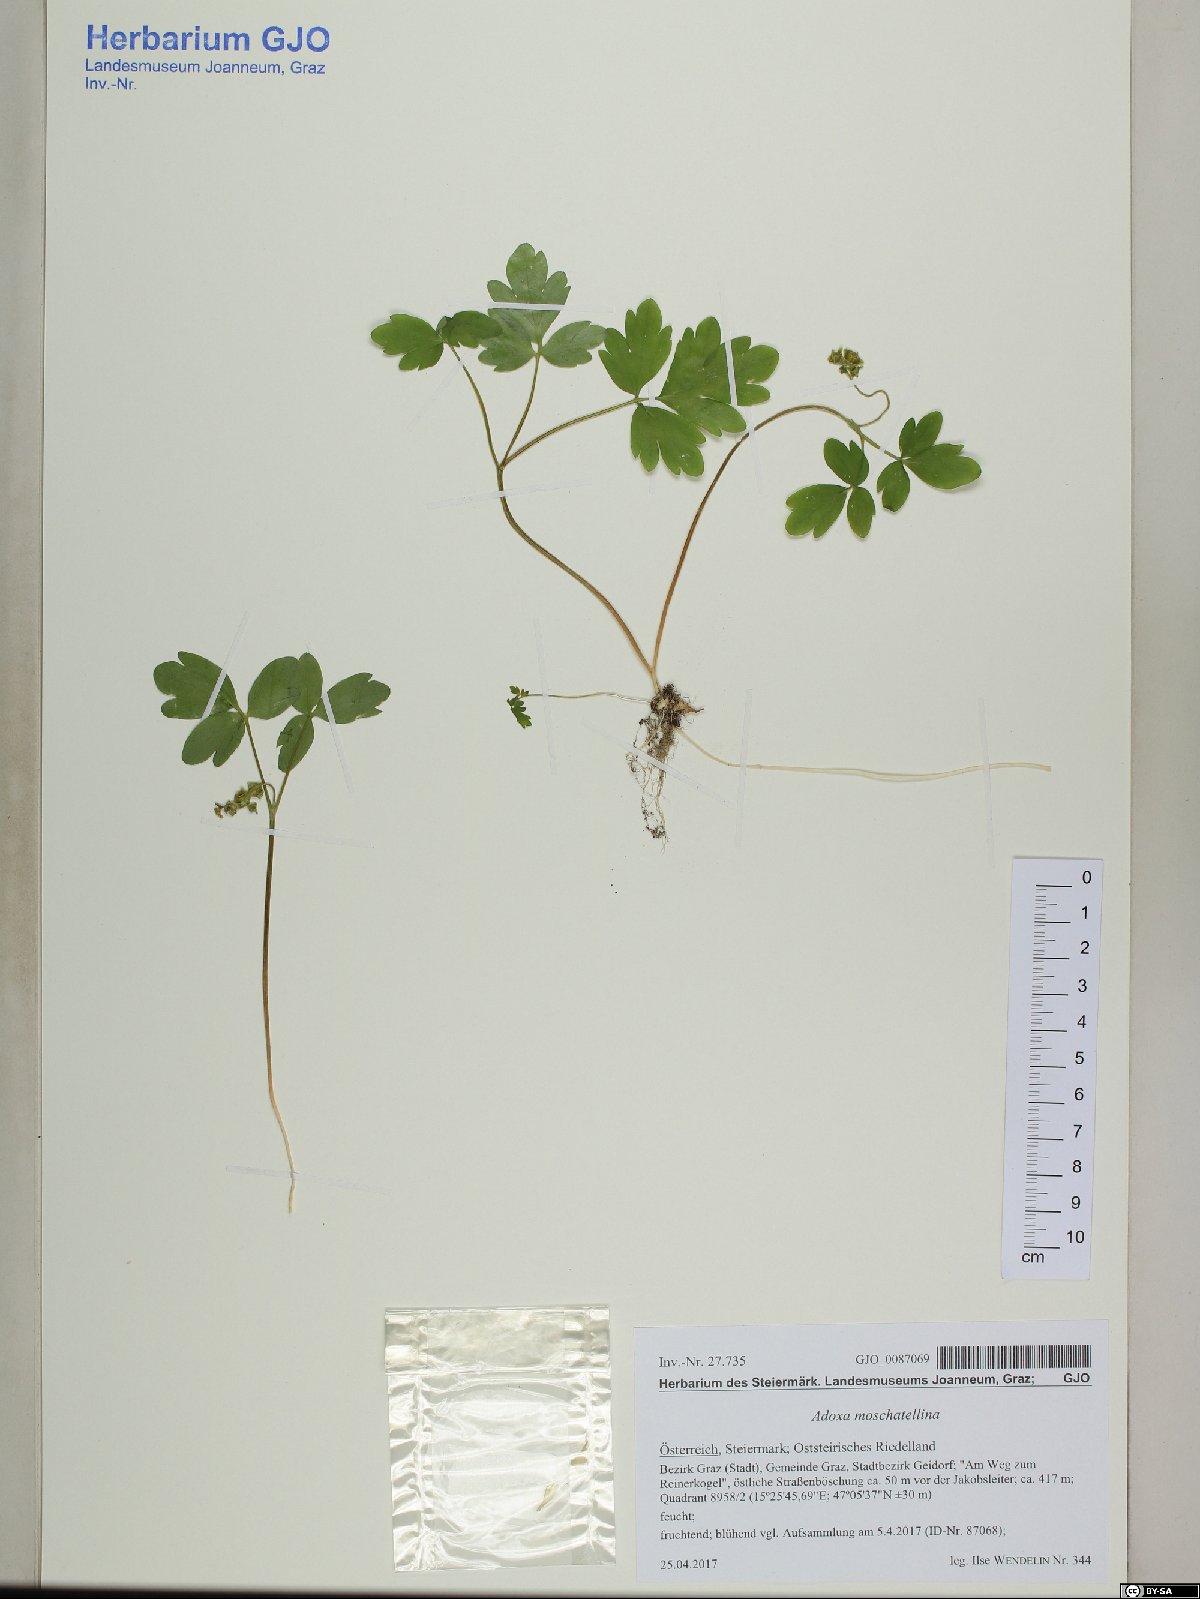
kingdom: Plantae
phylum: Tracheophyta
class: Magnoliopsida
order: Dipsacales
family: Viburnaceae
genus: Adoxa
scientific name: Adoxa moschatellina
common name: Moschatel
